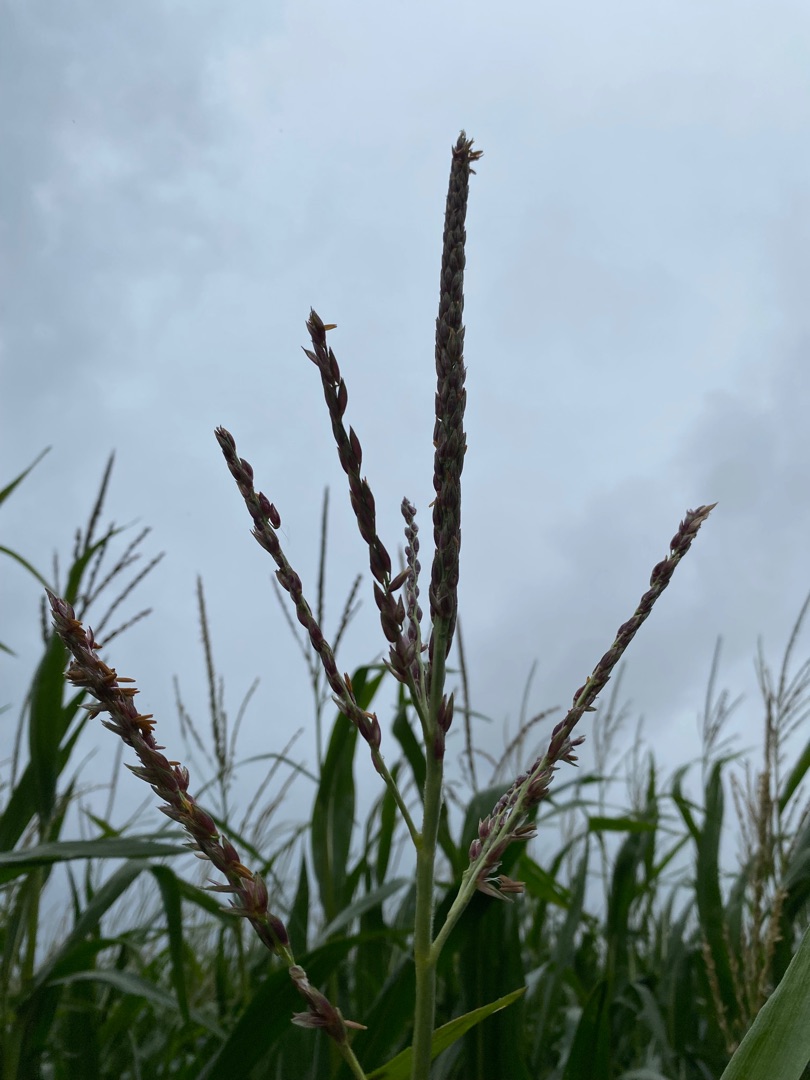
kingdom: Plantae
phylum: Tracheophyta
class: Liliopsida
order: Poales
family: Poaceae
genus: Zea
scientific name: Zea mays
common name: Majs
